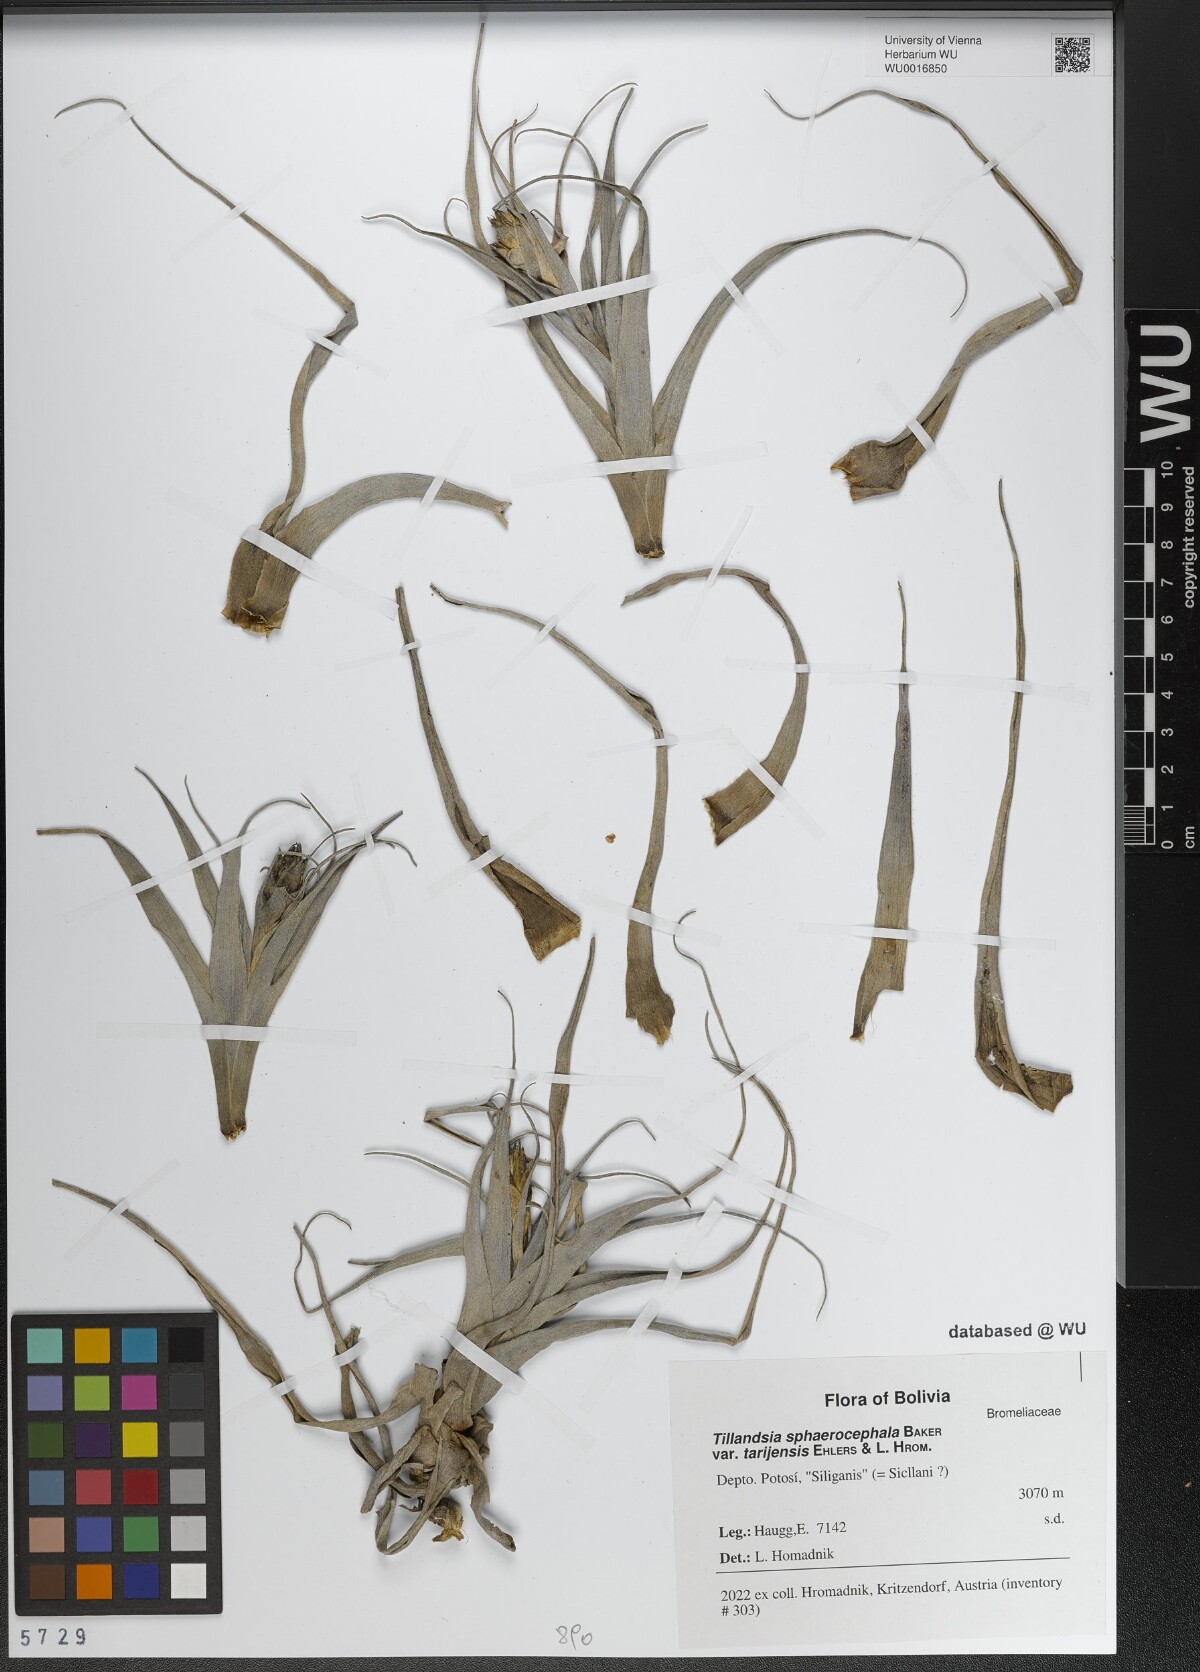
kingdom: Plantae
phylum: Tracheophyta
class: Liliopsida
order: Poales
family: Bromeliaceae
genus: Tillandsia
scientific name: Tillandsia sphaerocephala
